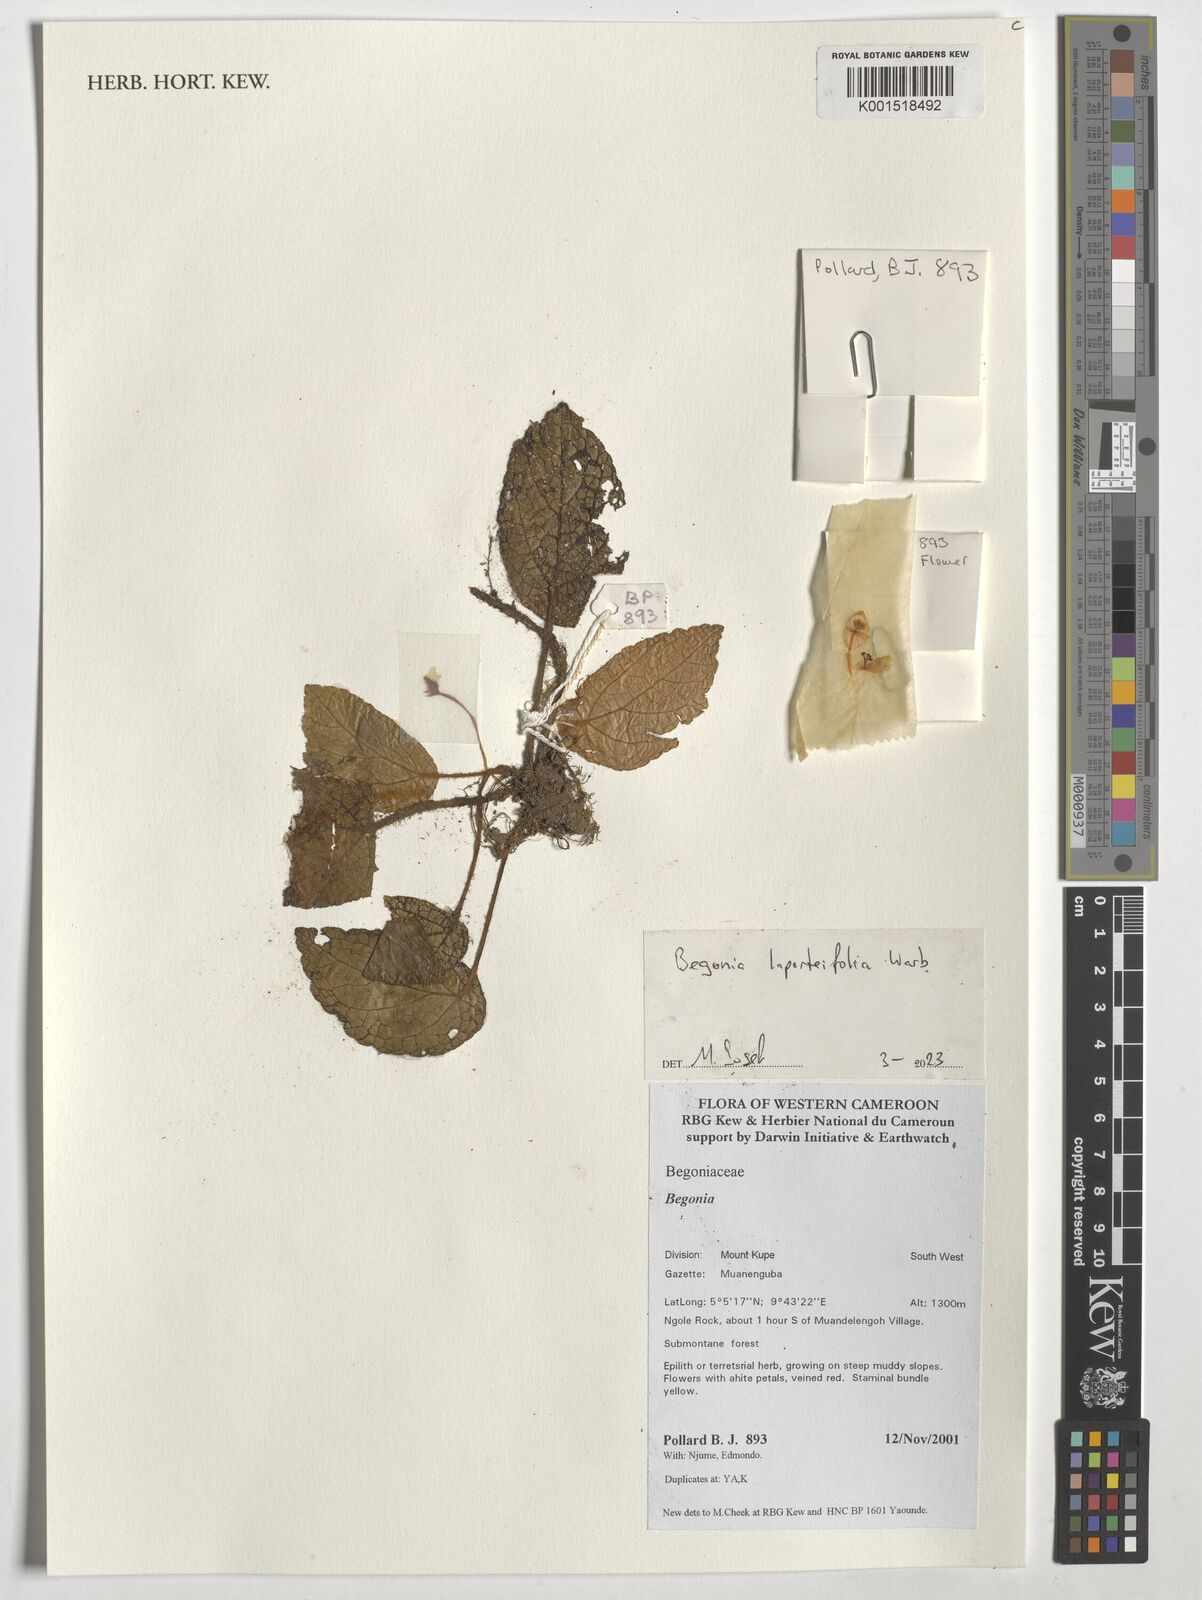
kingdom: Plantae
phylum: Tracheophyta
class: Magnoliopsida
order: Cucurbitales
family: Begoniaceae
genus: Begonia
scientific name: Begonia laporteifolia
